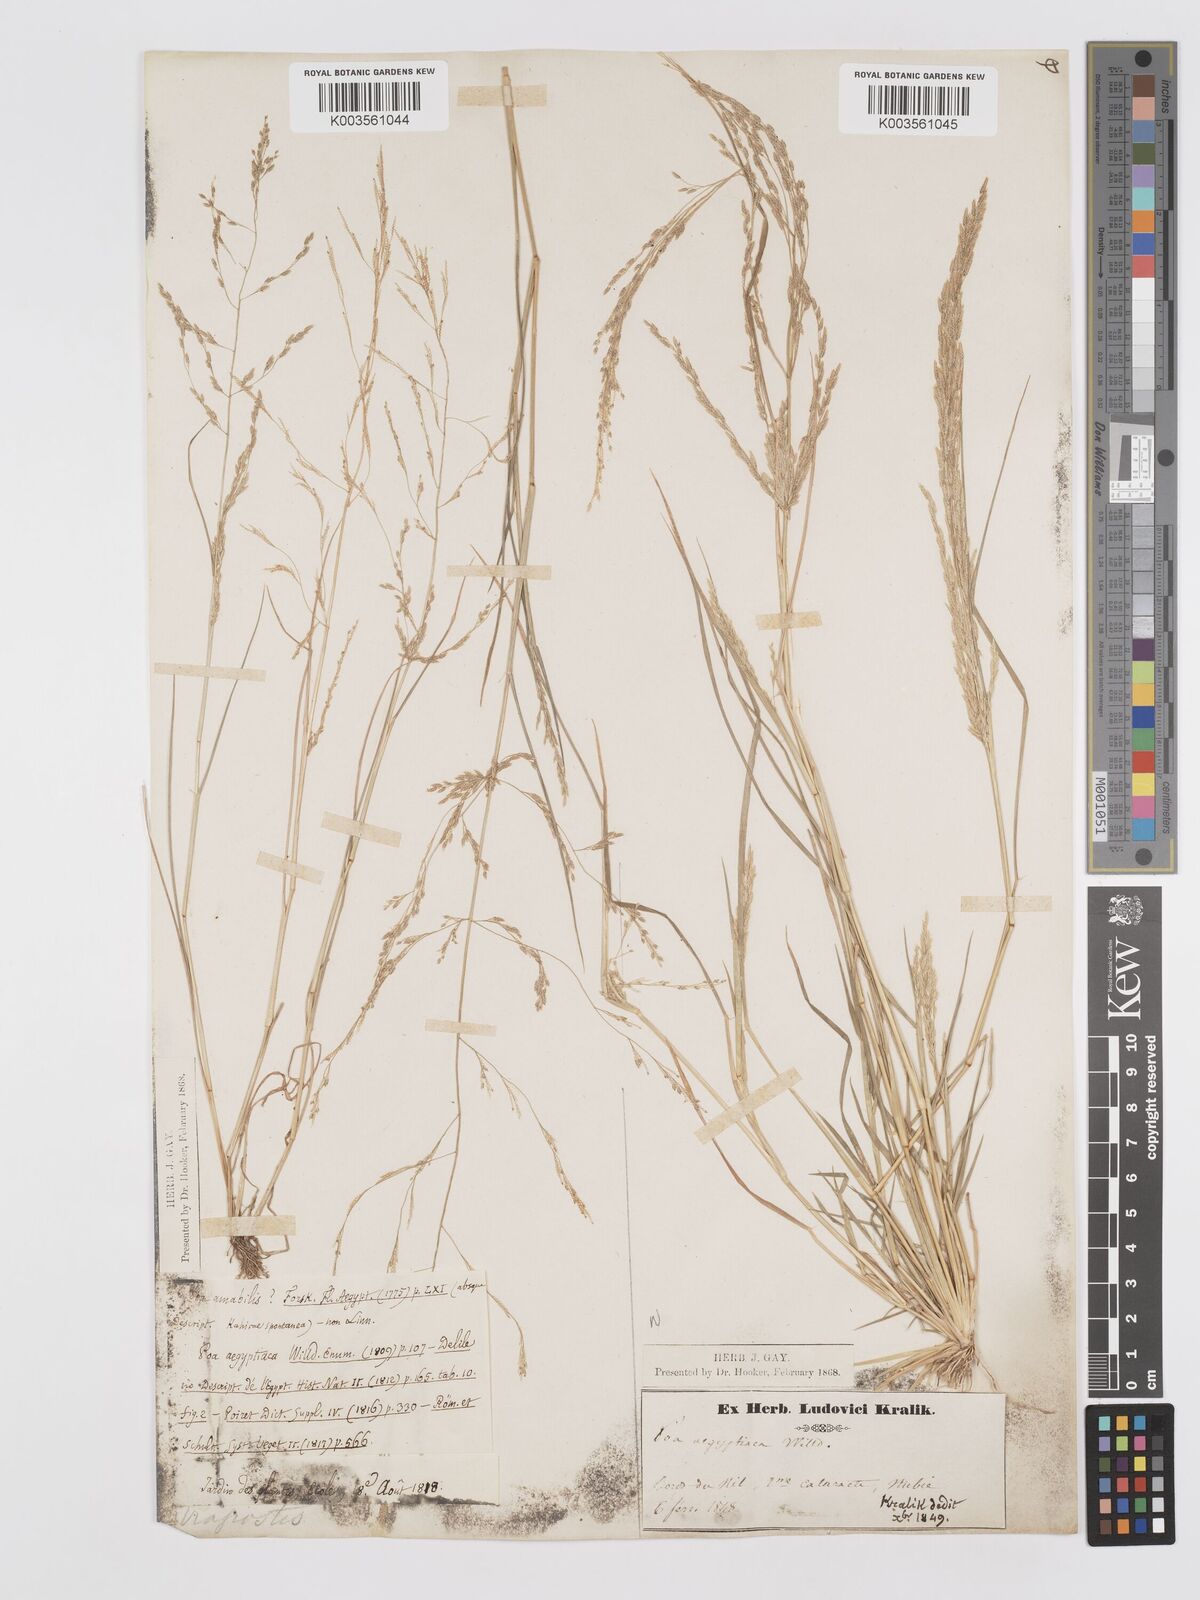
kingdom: Plantae
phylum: Tracheophyta
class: Liliopsida
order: Poales
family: Poaceae
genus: Eragrostis
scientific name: Eragrostis aegyptiaca
